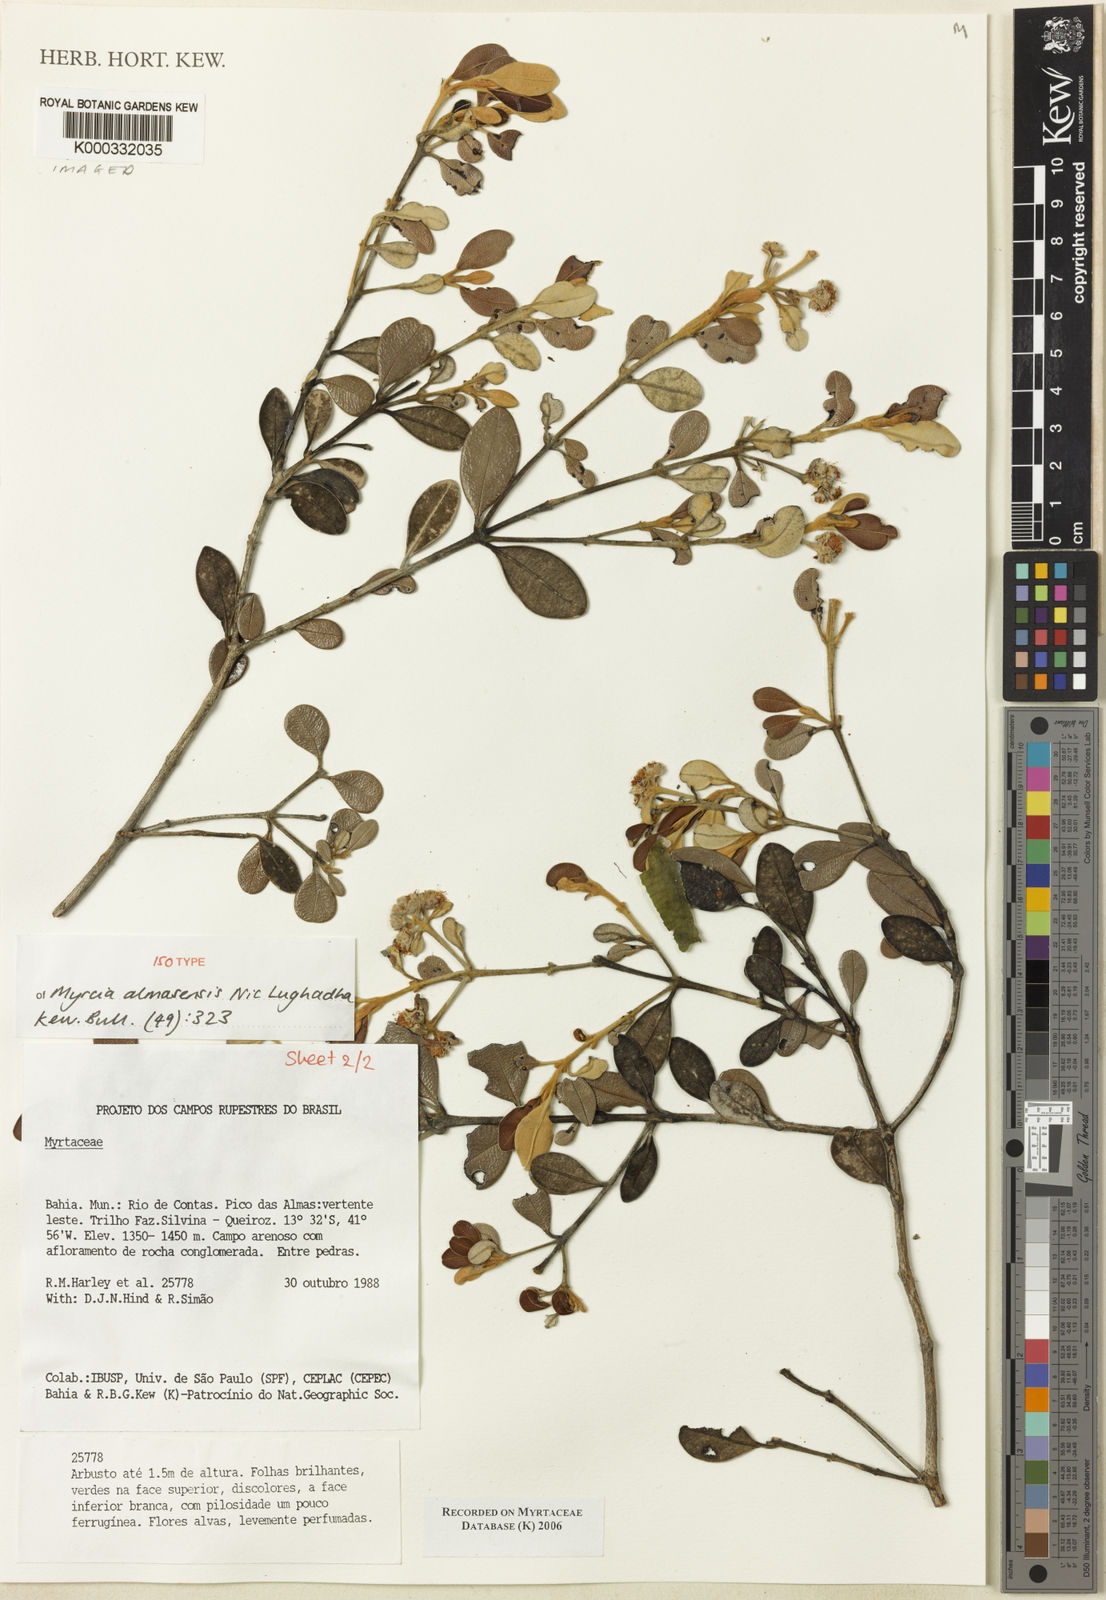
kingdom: Plantae
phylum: Tracheophyta
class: Magnoliopsida
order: Myrtales
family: Myrtaceae
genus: Myrcia
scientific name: Myrcia almasensis
